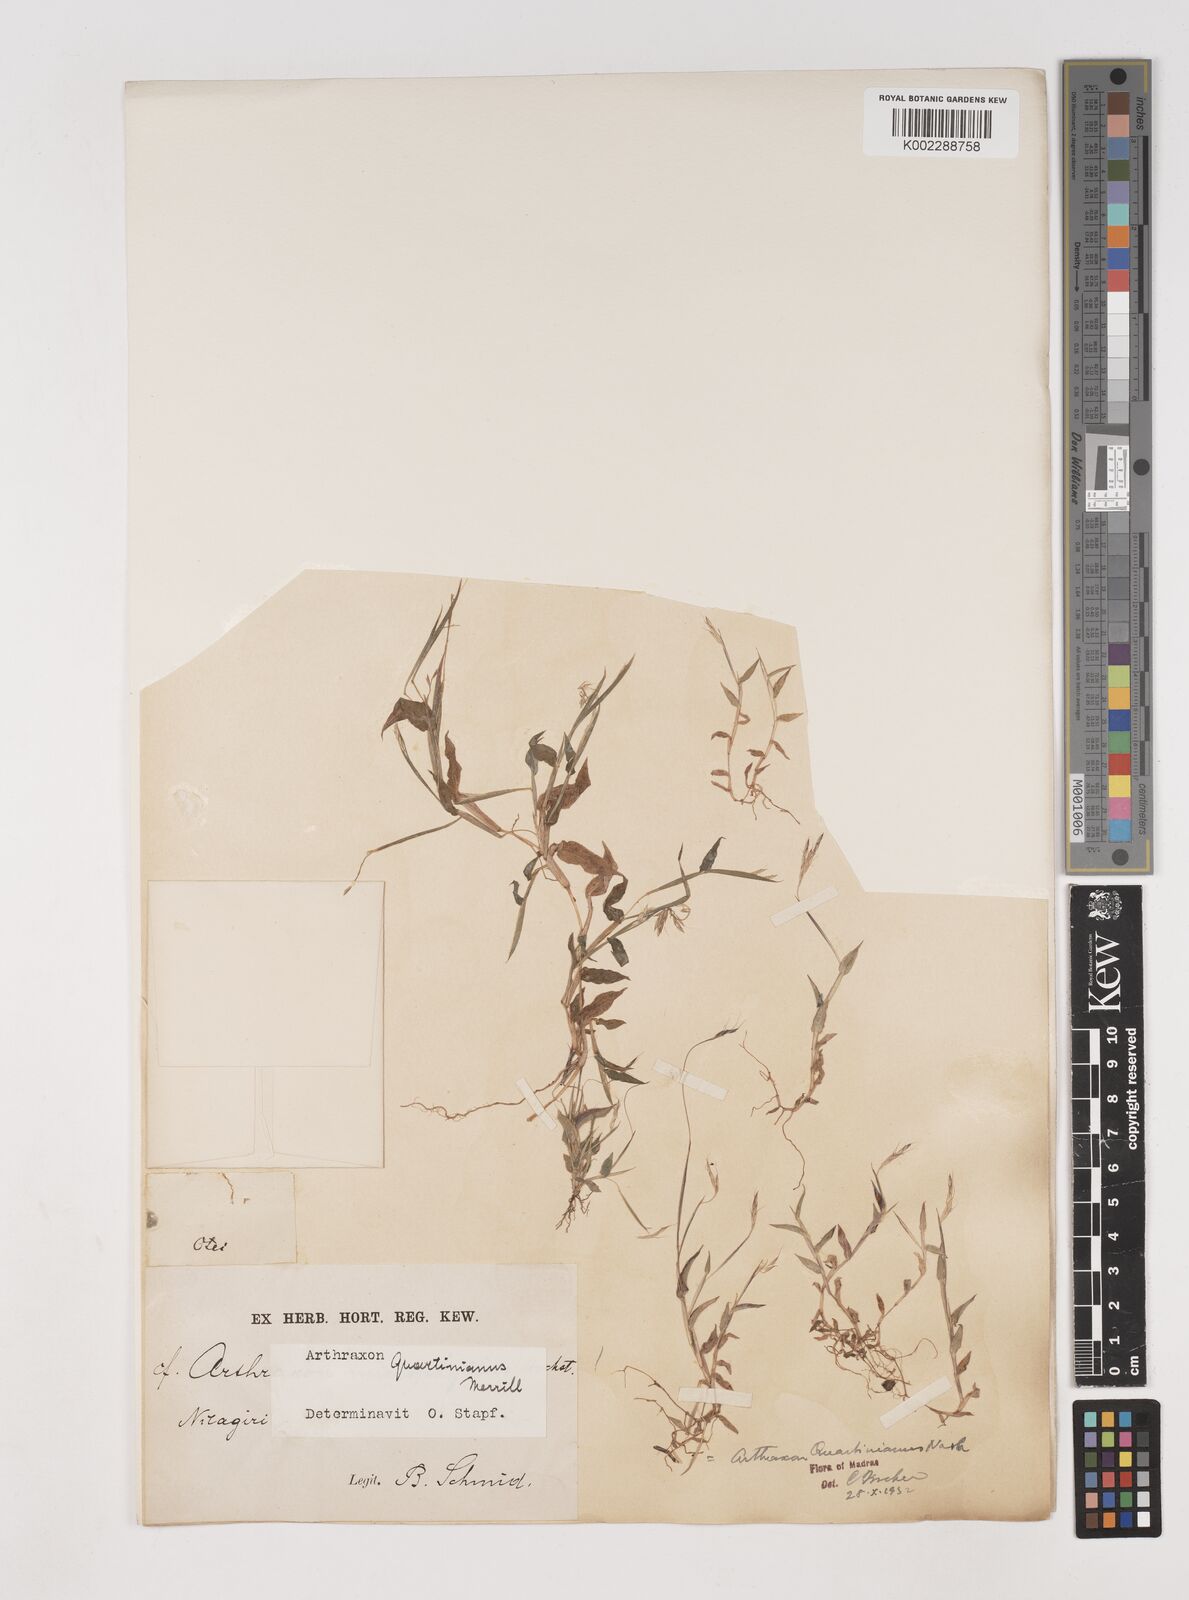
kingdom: Plantae
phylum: Tracheophyta
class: Liliopsida
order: Poales
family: Poaceae
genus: Arthraxon
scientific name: Arthraxon hispidus
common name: Small carpgrass
